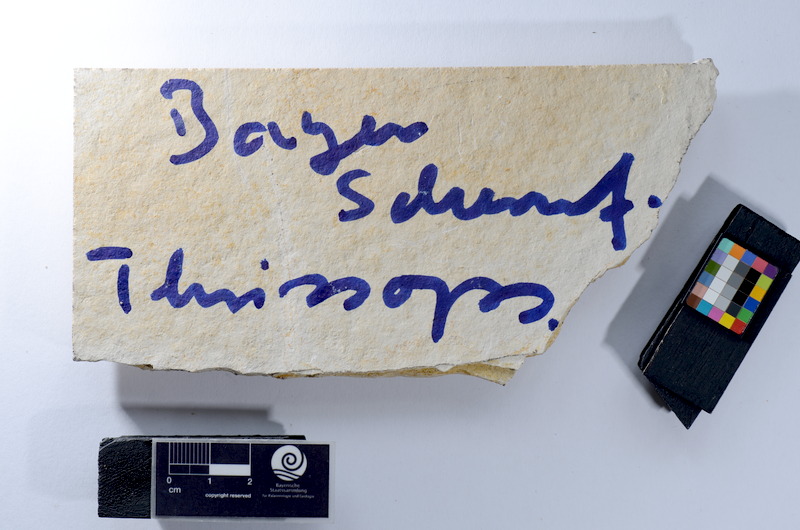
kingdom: Animalia
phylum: Chordata
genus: Thrissops
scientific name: Thrissops
